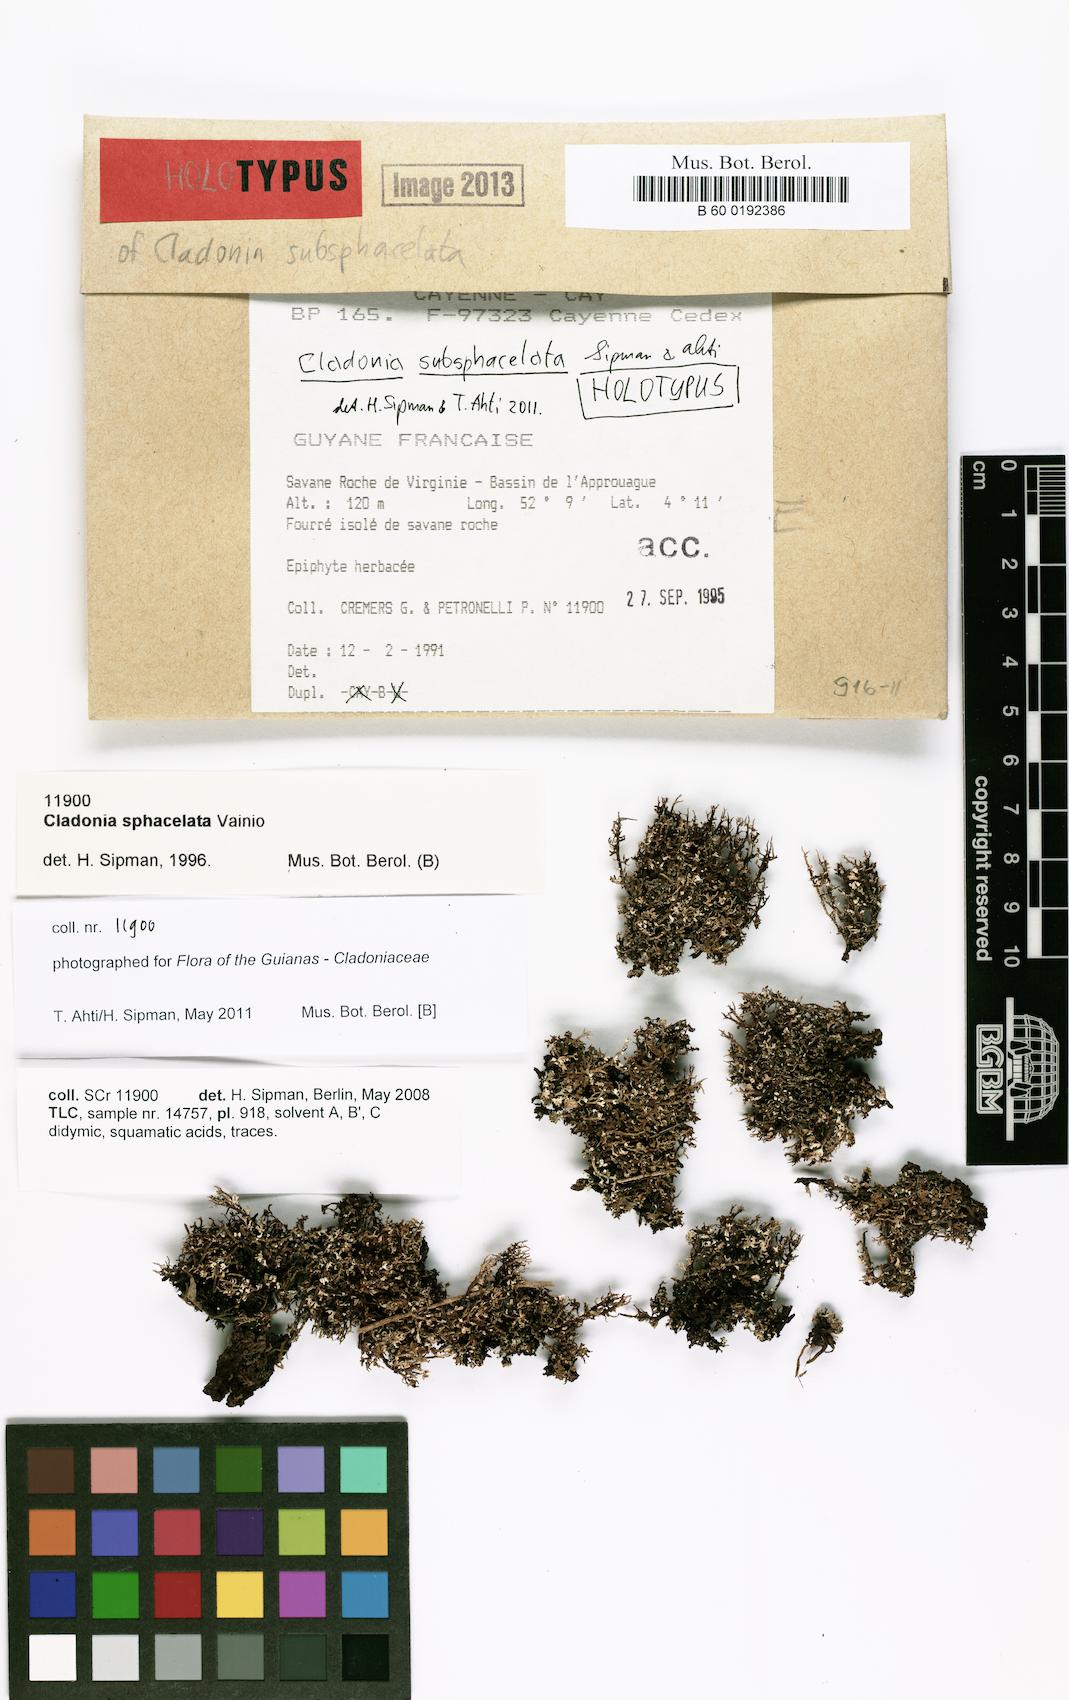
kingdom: Fungi
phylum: Ascomycota
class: Lecanoromycetes
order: Lecanorales
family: Cladoniaceae
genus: Cladonia
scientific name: Cladonia subsphacelata
